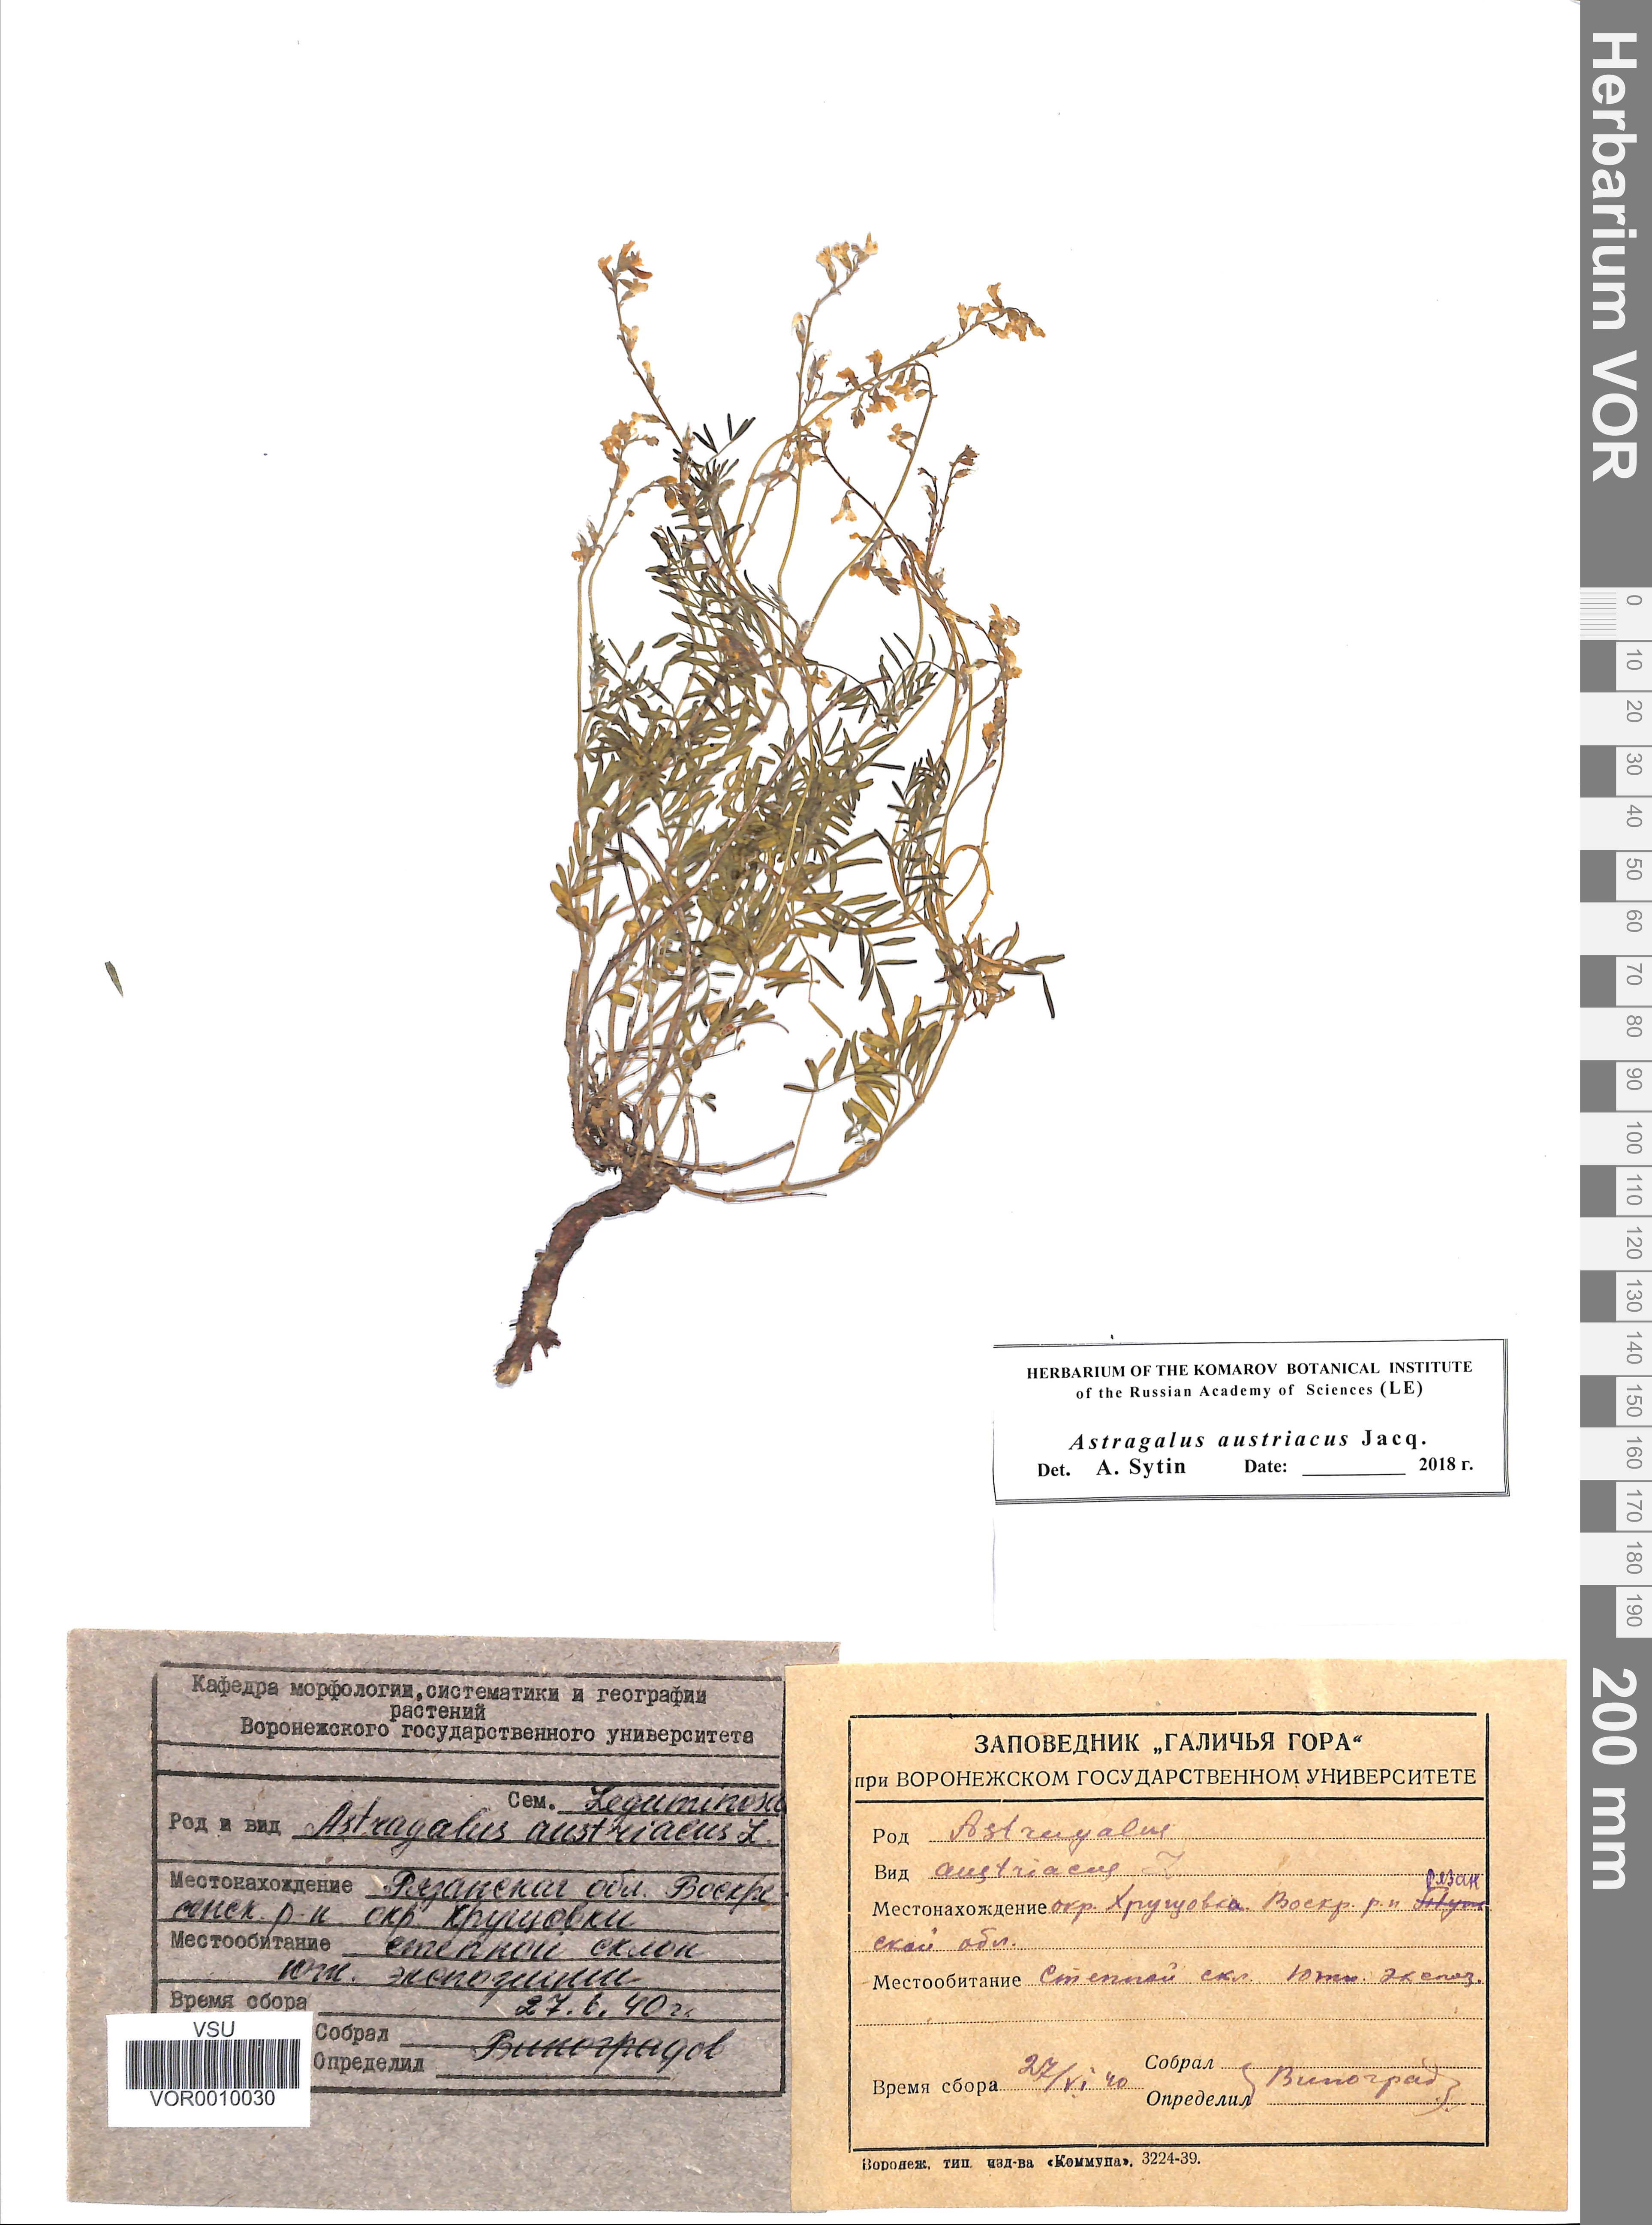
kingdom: Plantae
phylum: Tracheophyta
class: Magnoliopsida
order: Fabales
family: Fabaceae
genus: Astragalus
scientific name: Astragalus austriacus
